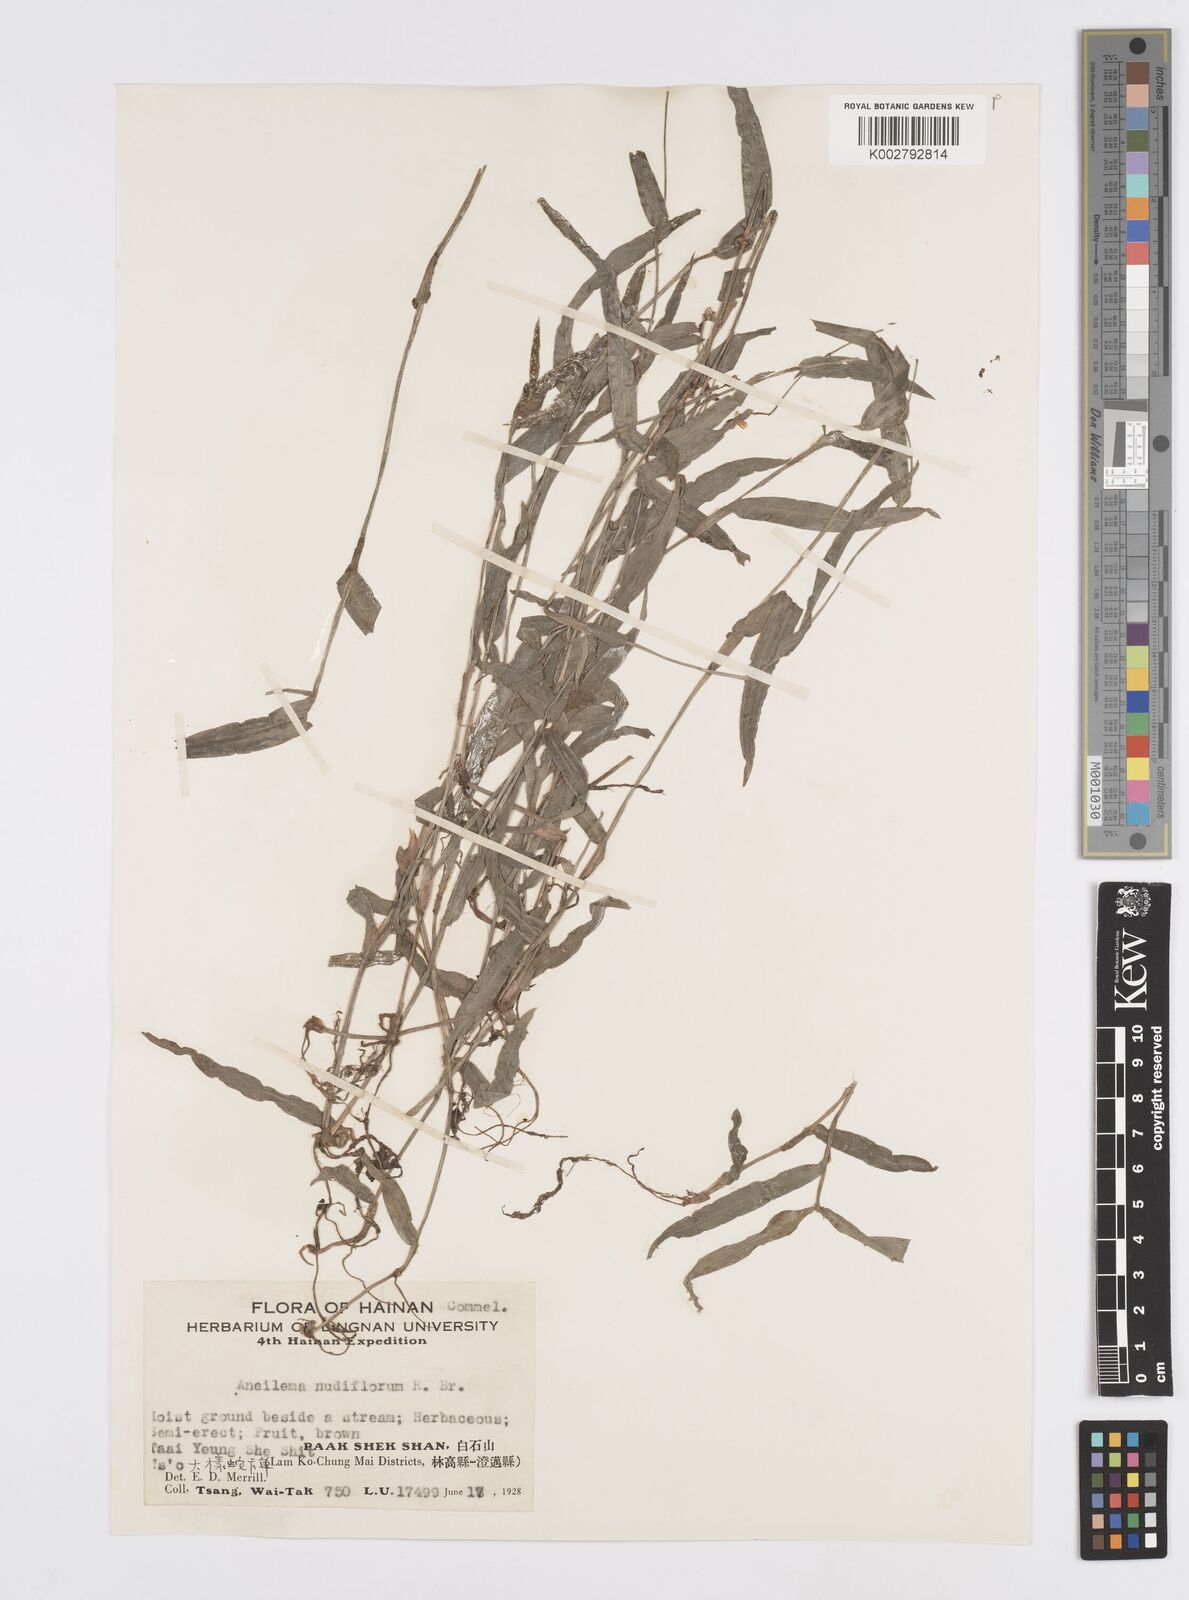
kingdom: Plantae
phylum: Tracheophyta
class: Liliopsida
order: Commelinales
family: Commelinaceae
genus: Murdannia
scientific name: Murdannia
